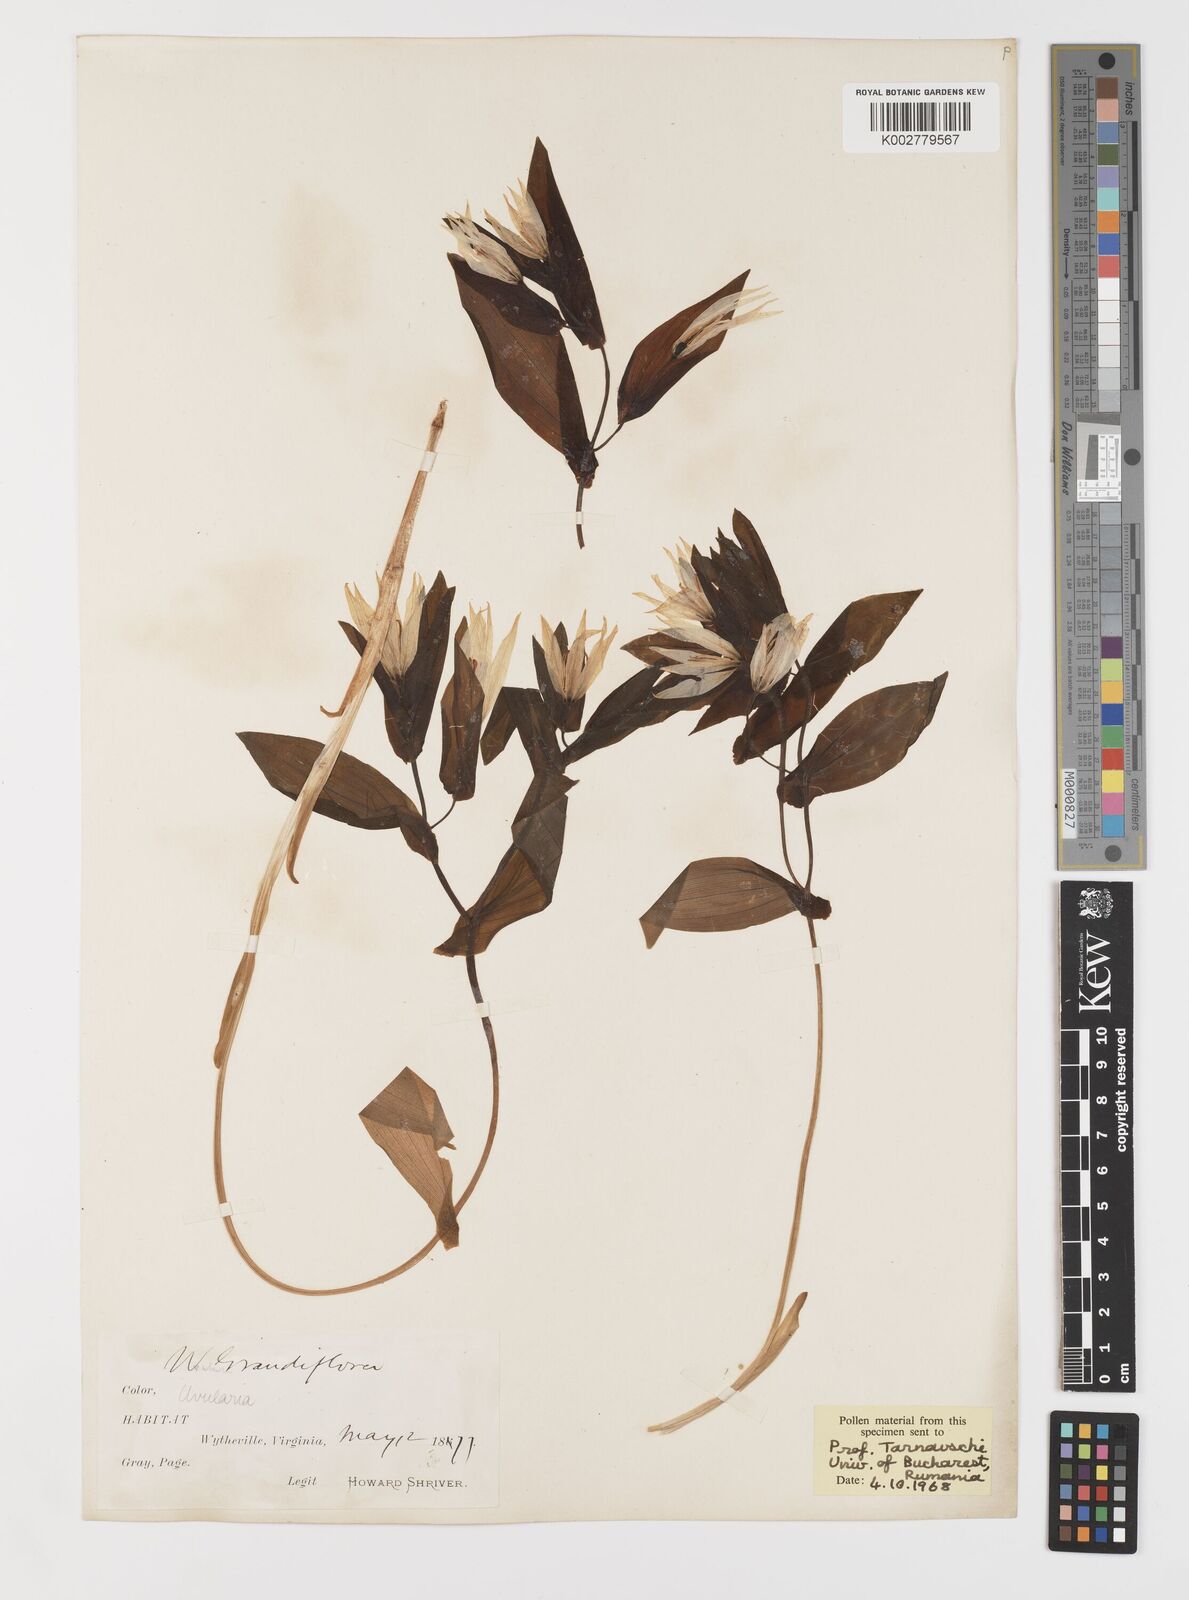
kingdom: Plantae
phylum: Tracheophyta
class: Liliopsida
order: Liliales
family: Colchicaceae
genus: Uvularia
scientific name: Uvularia grandiflora
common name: Bellwort
